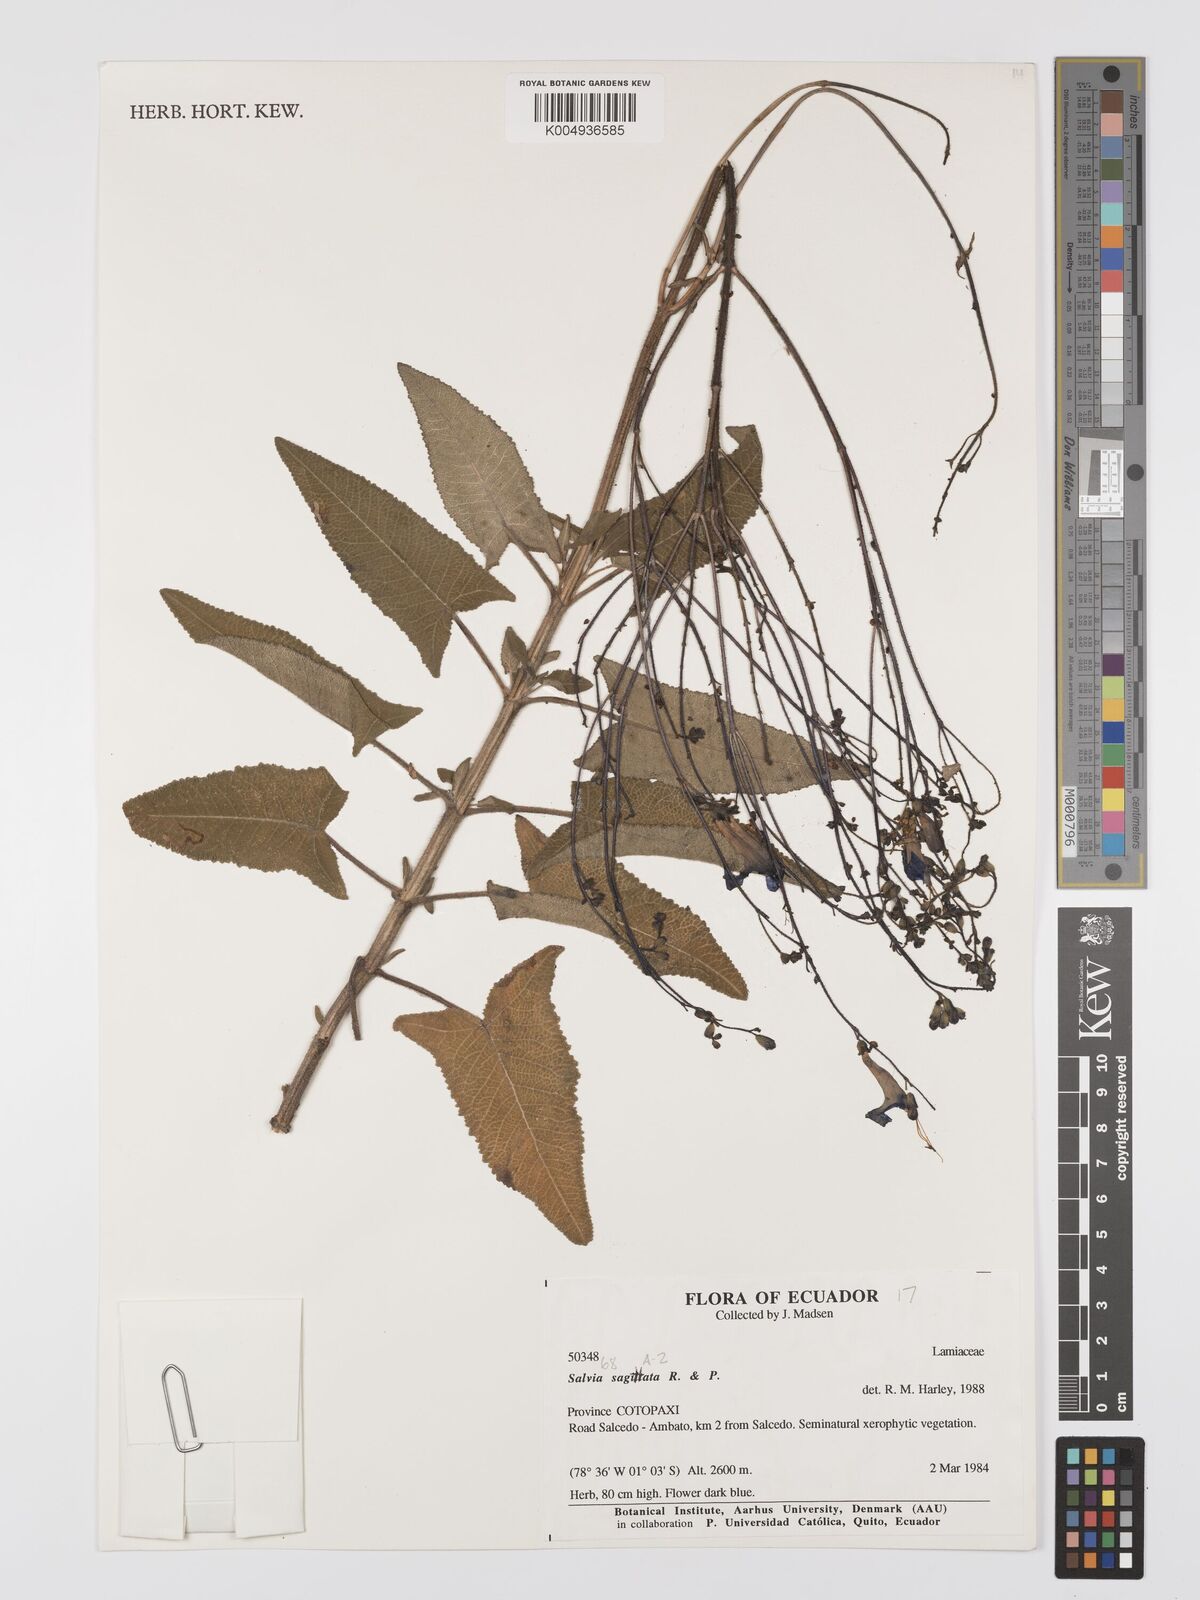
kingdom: Plantae
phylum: Tracheophyta
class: Magnoliopsida
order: Lamiales
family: Lamiaceae
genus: Salvia
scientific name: Salvia sagittata
